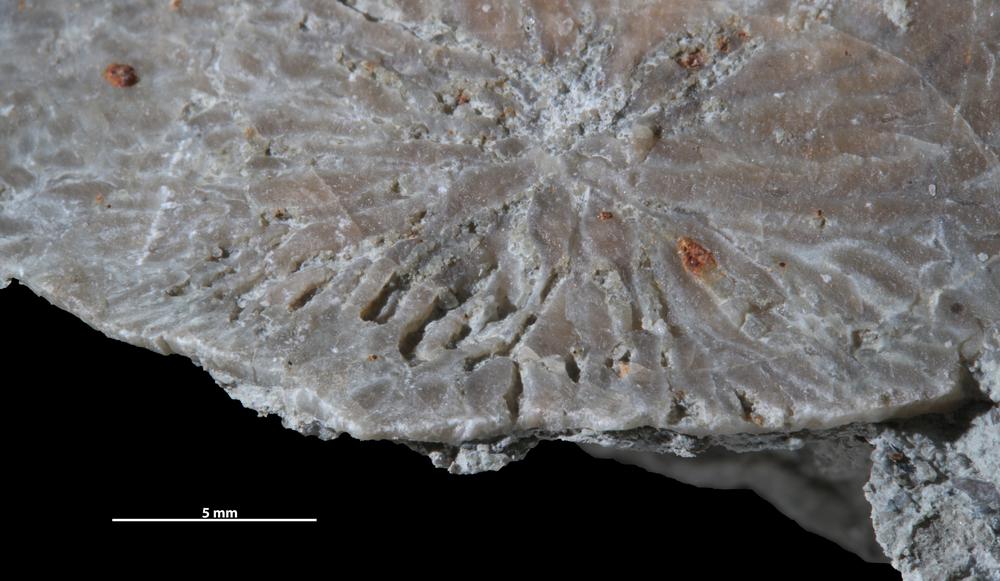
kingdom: Chromista
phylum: Foraminifera
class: Globothalamea
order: Rotaliida
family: Anomalinidae
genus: Dendrina
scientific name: Dendrina
